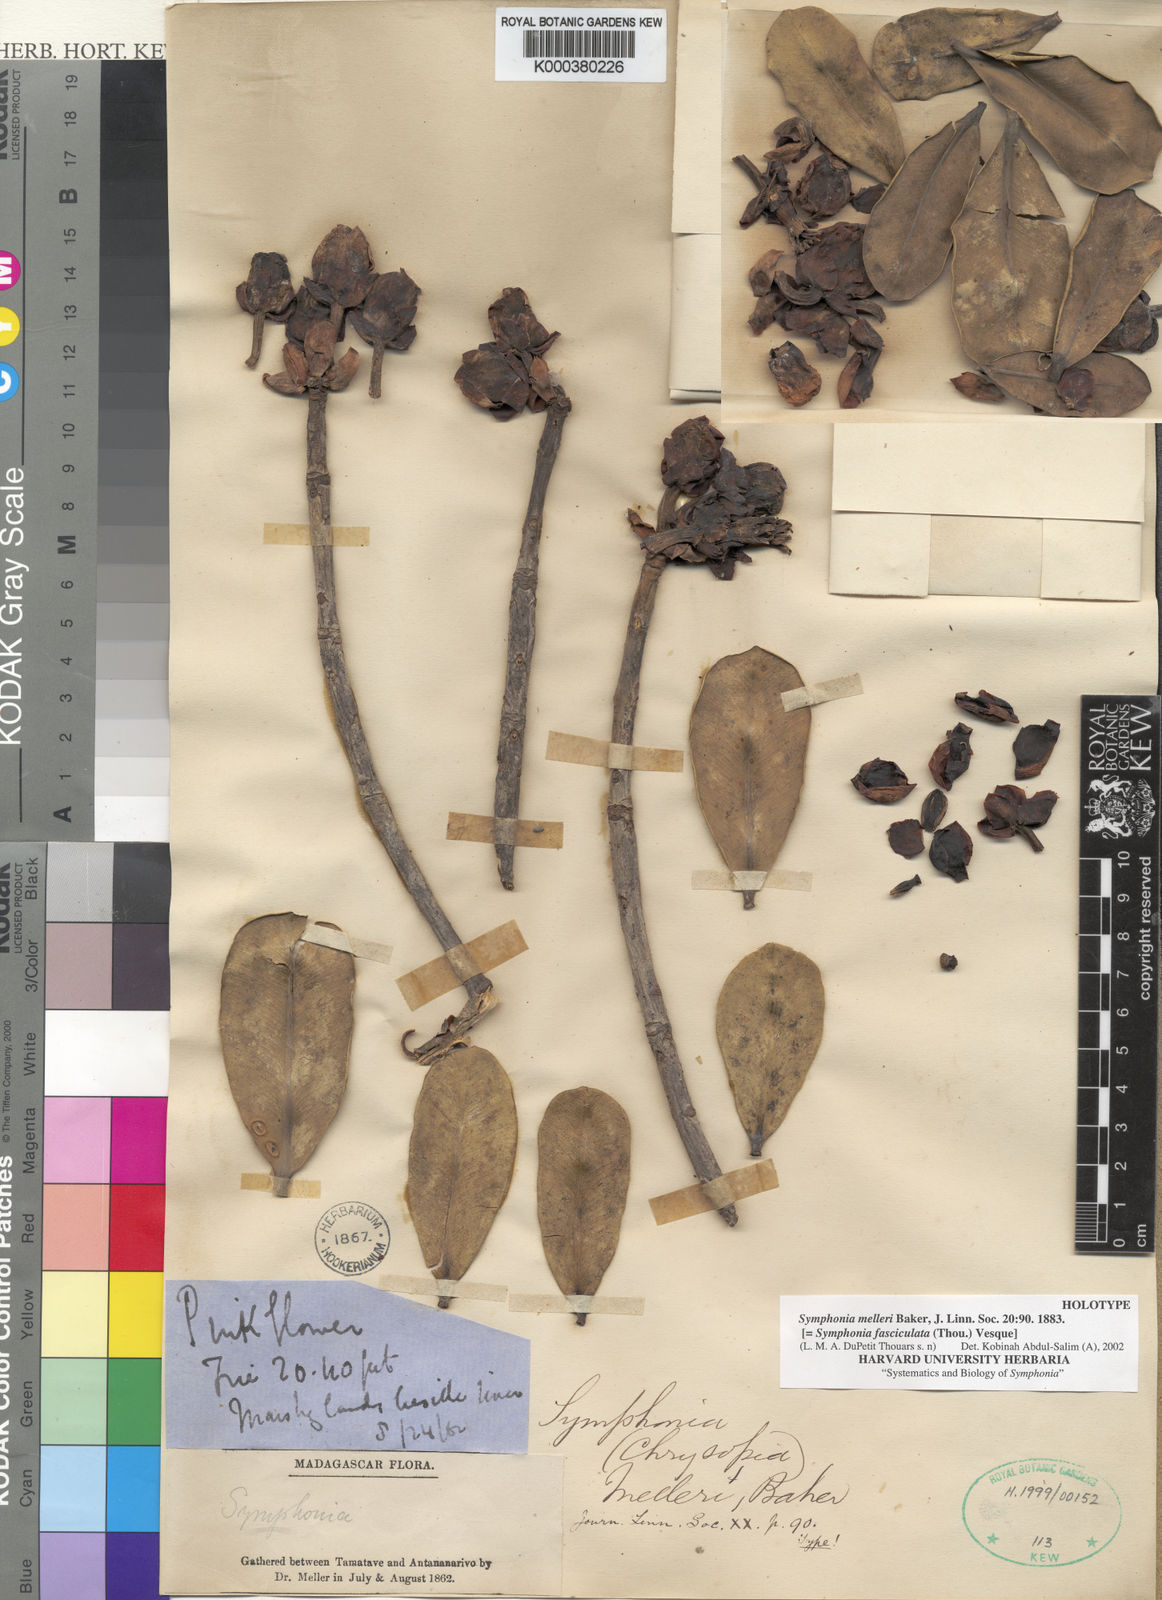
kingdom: Plantae
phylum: Tracheophyta
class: Magnoliopsida
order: Malpighiales
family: Clusiaceae
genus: Symphonia
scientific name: Symphonia fasciculata
